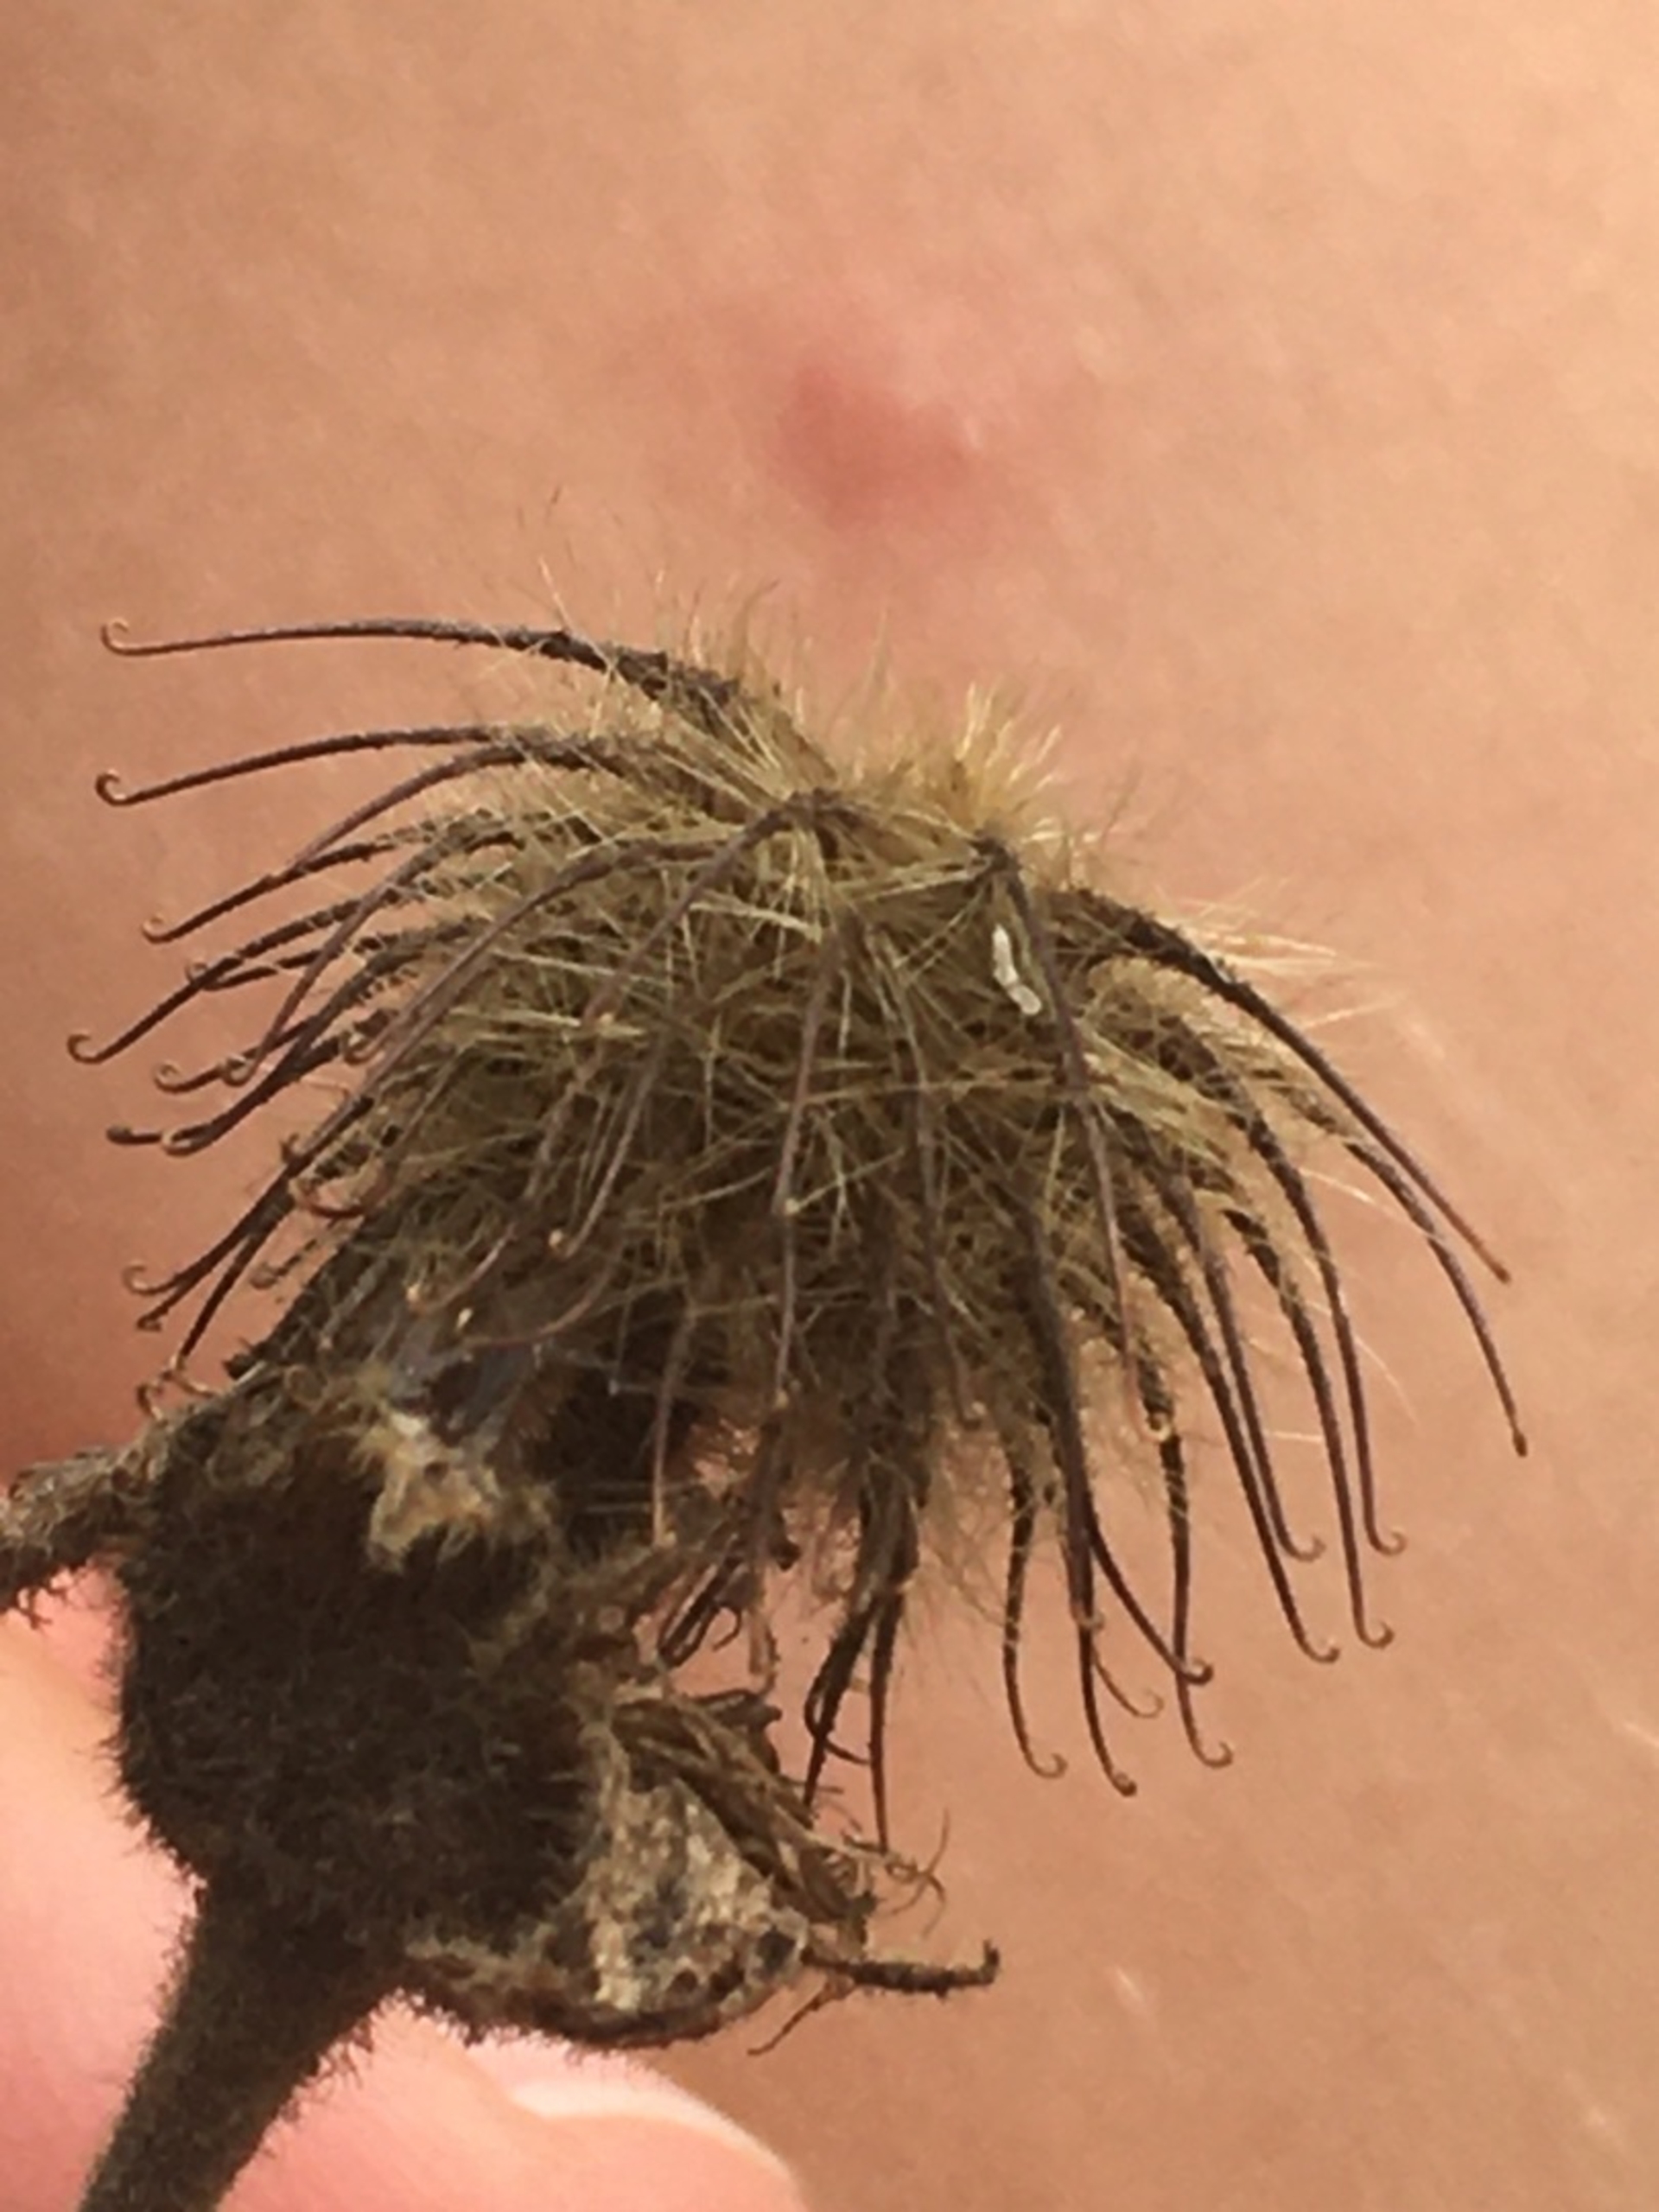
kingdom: Plantae
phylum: Tracheophyta
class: Magnoliopsida
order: Rosales
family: Rosaceae
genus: Geum
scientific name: Geum rivale
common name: Eng-nellikerod
